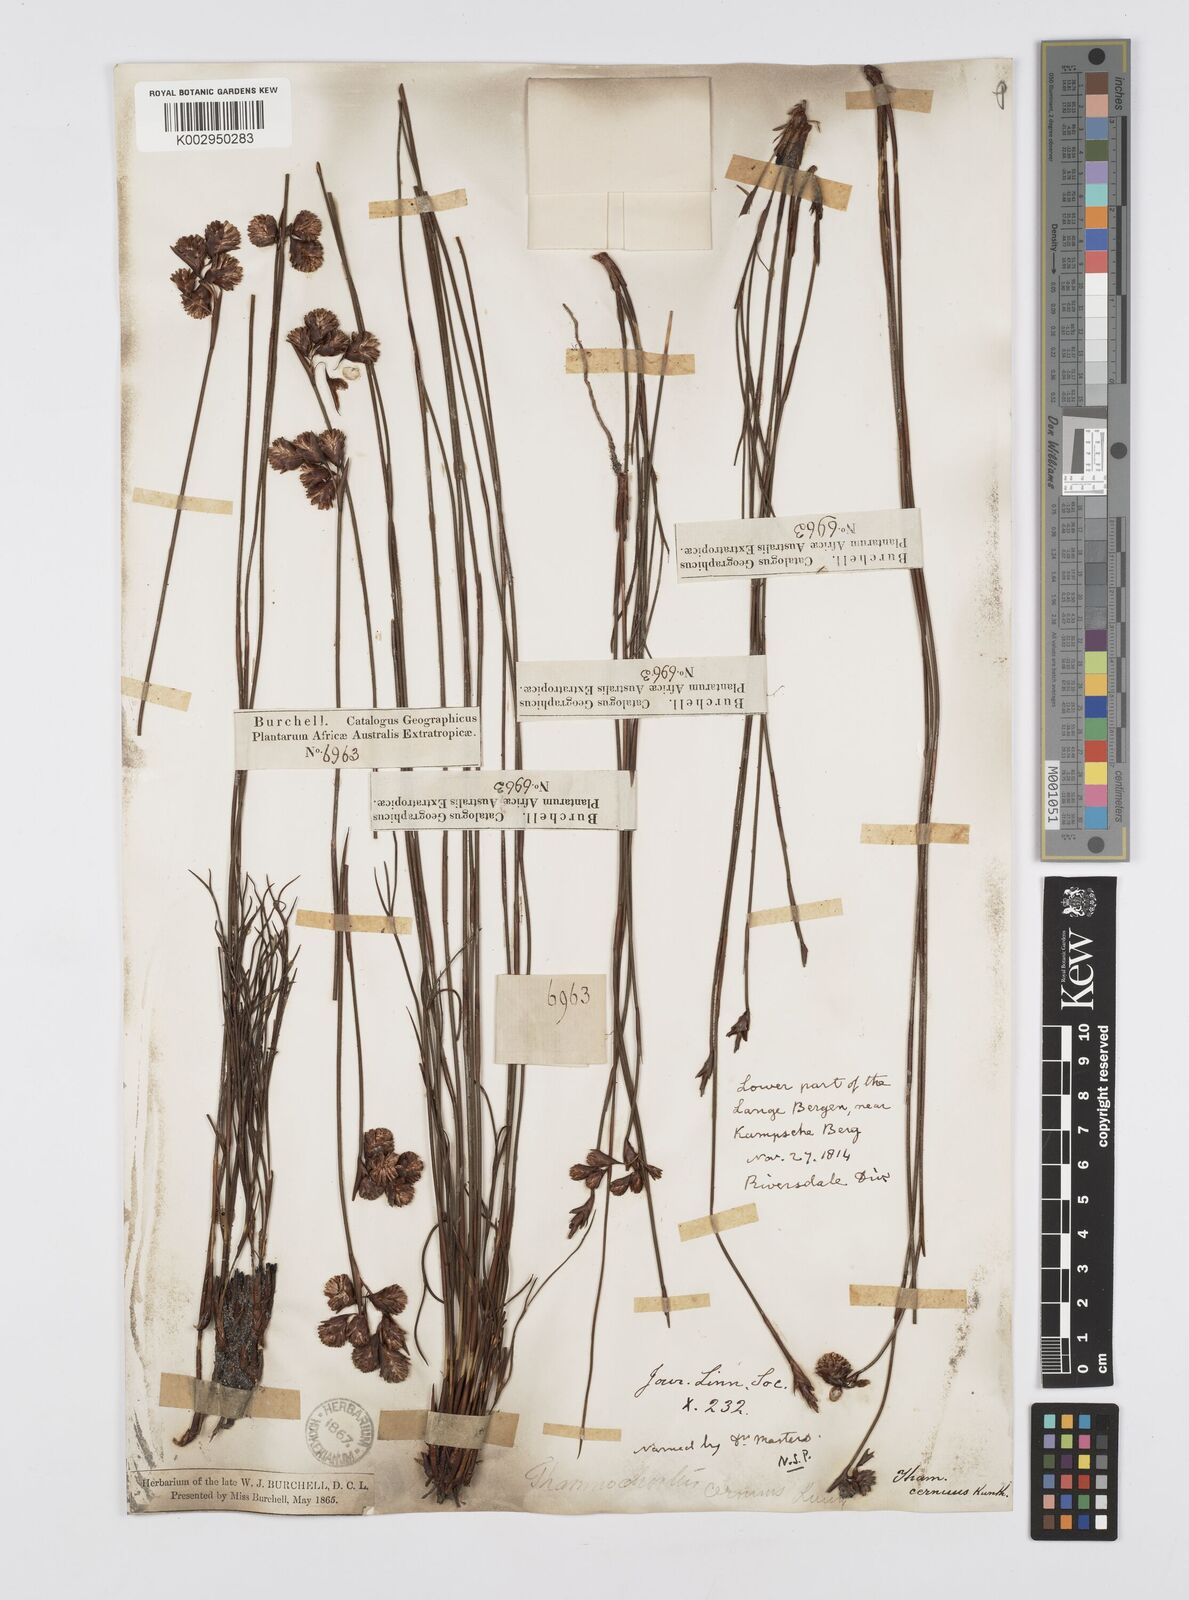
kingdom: Plantae
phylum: Tracheophyta
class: Liliopsida
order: Poales
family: Restionaceae
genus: Staberoha
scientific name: Staberoha cernua
